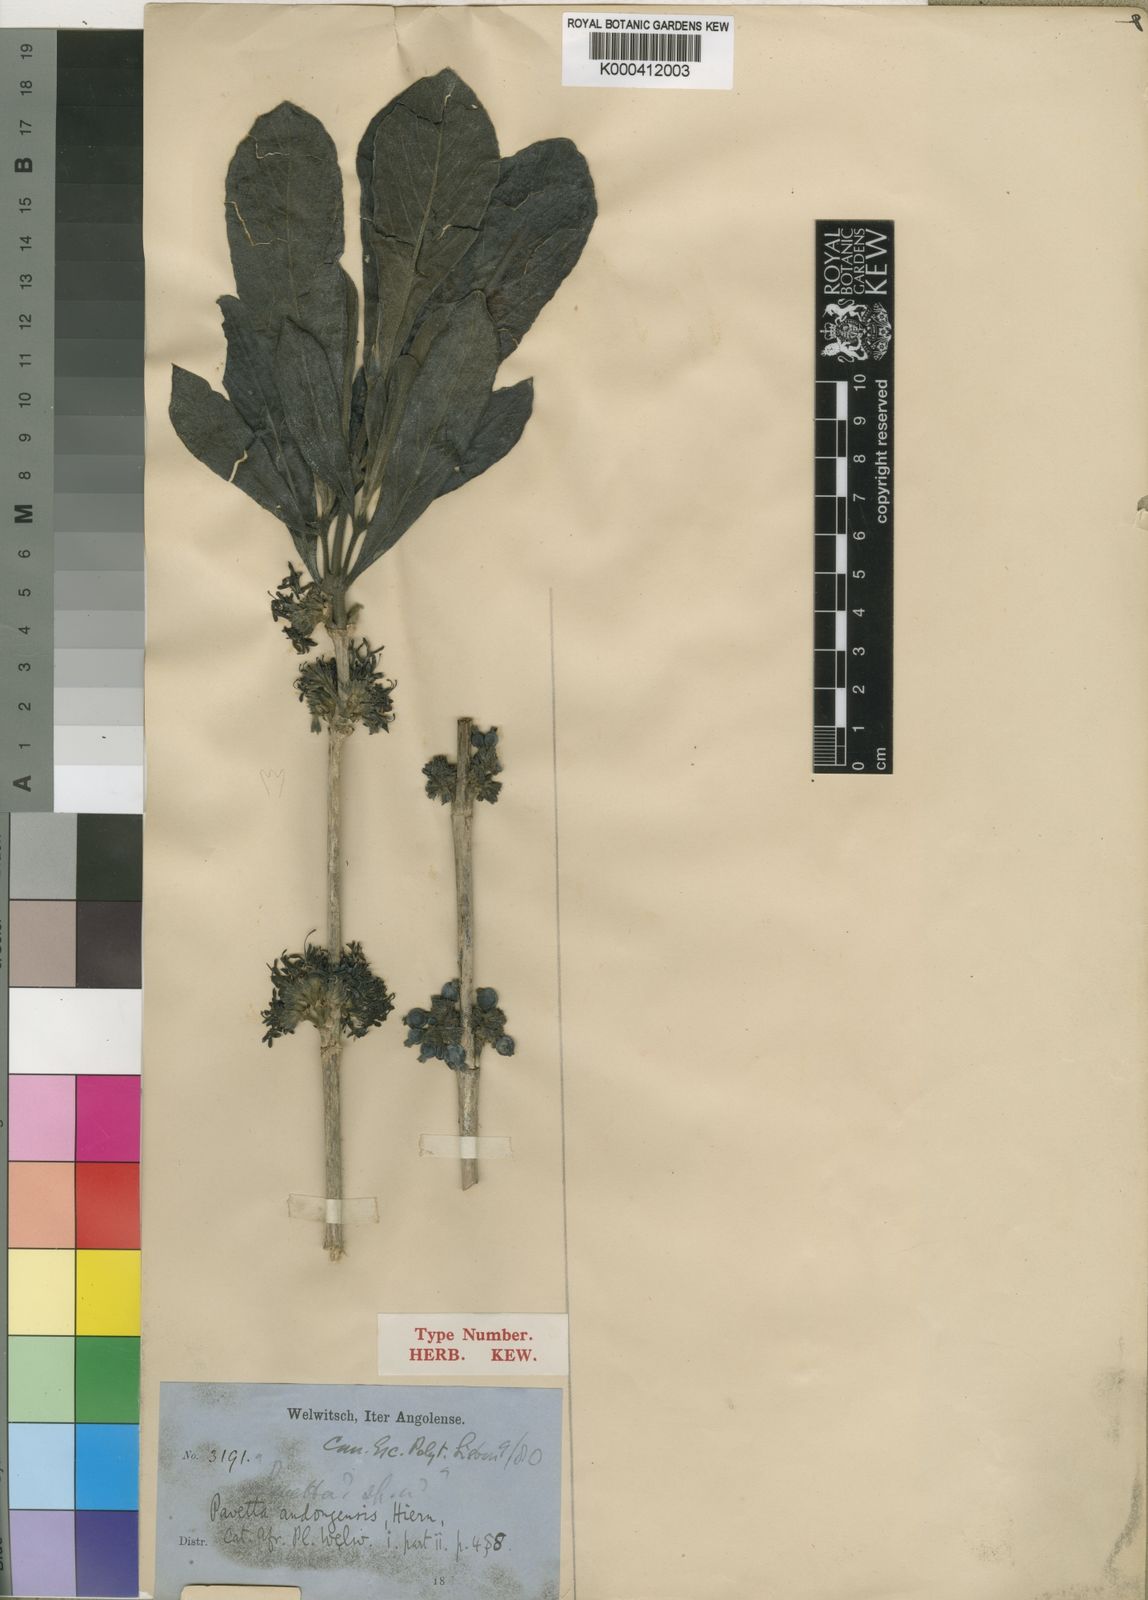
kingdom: Plantae
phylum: Tracheophyta
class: Magnoliopsida
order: Gentianales
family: Rubiaceae
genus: Pavetta
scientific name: Pavetta andongensis
